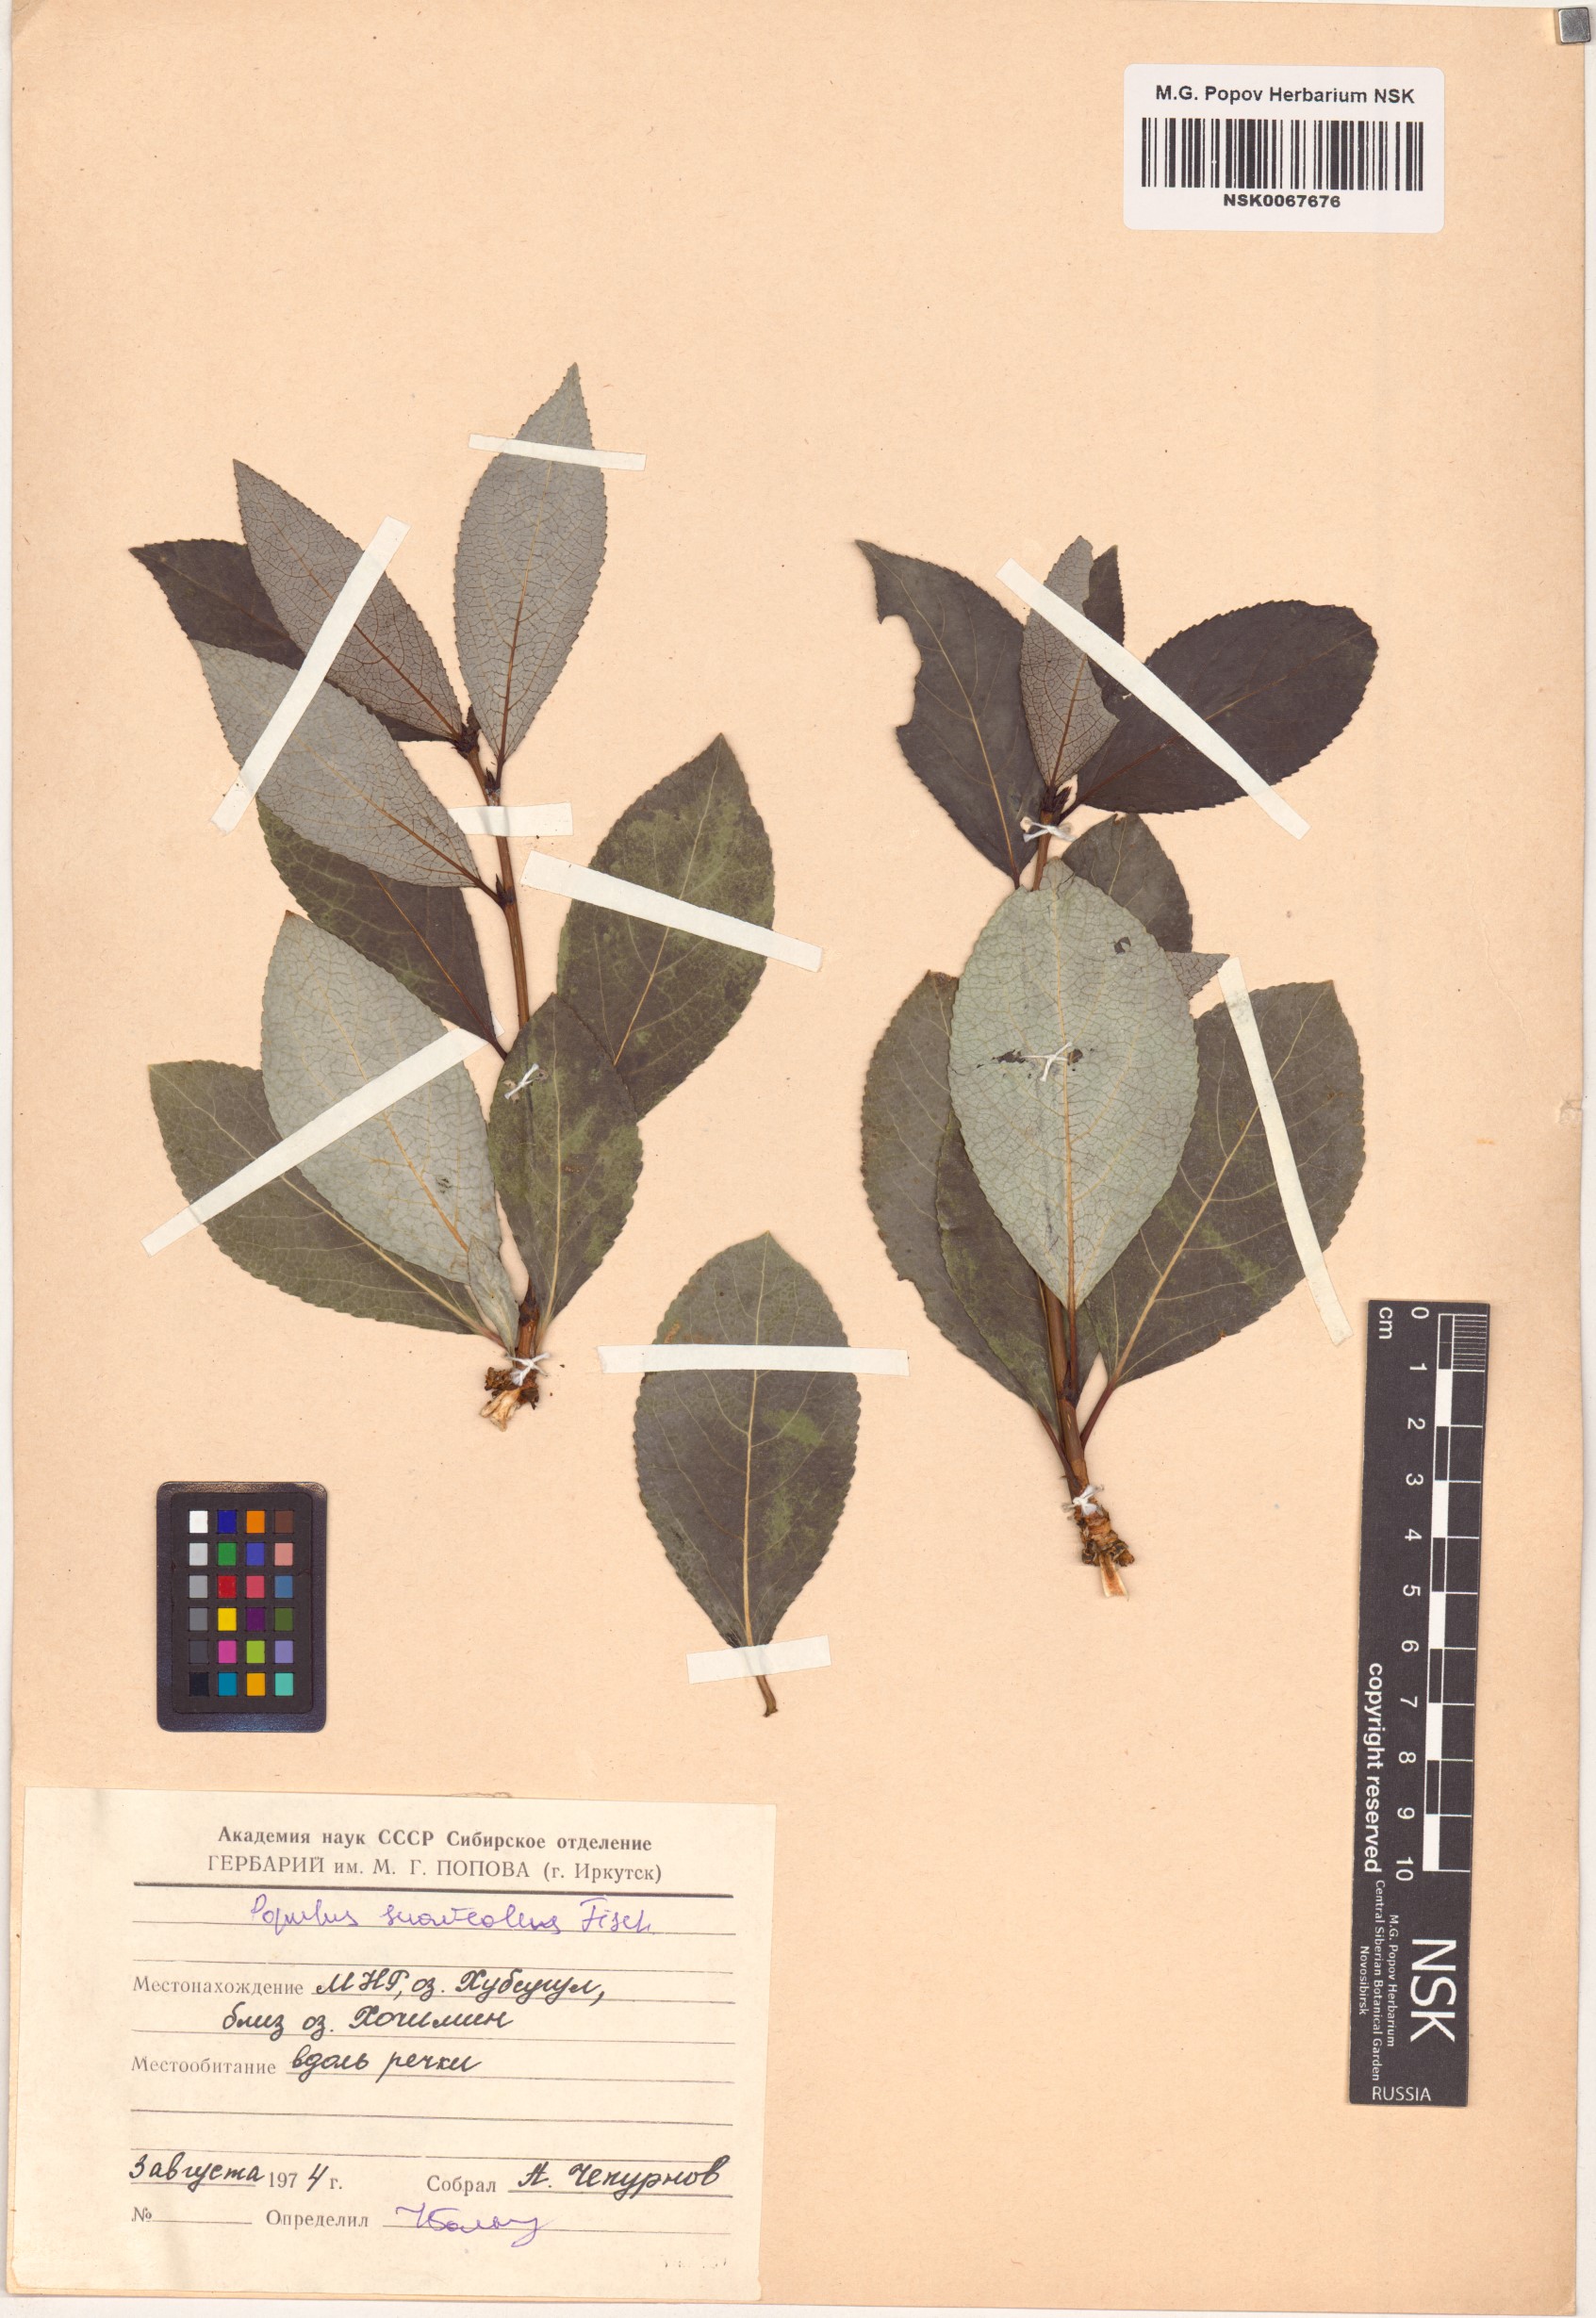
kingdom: Plantae
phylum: Tracheophyta
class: Magnoliopsida
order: Malpighiales
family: Salicaceae
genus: Populus
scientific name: Populus suaveolens
